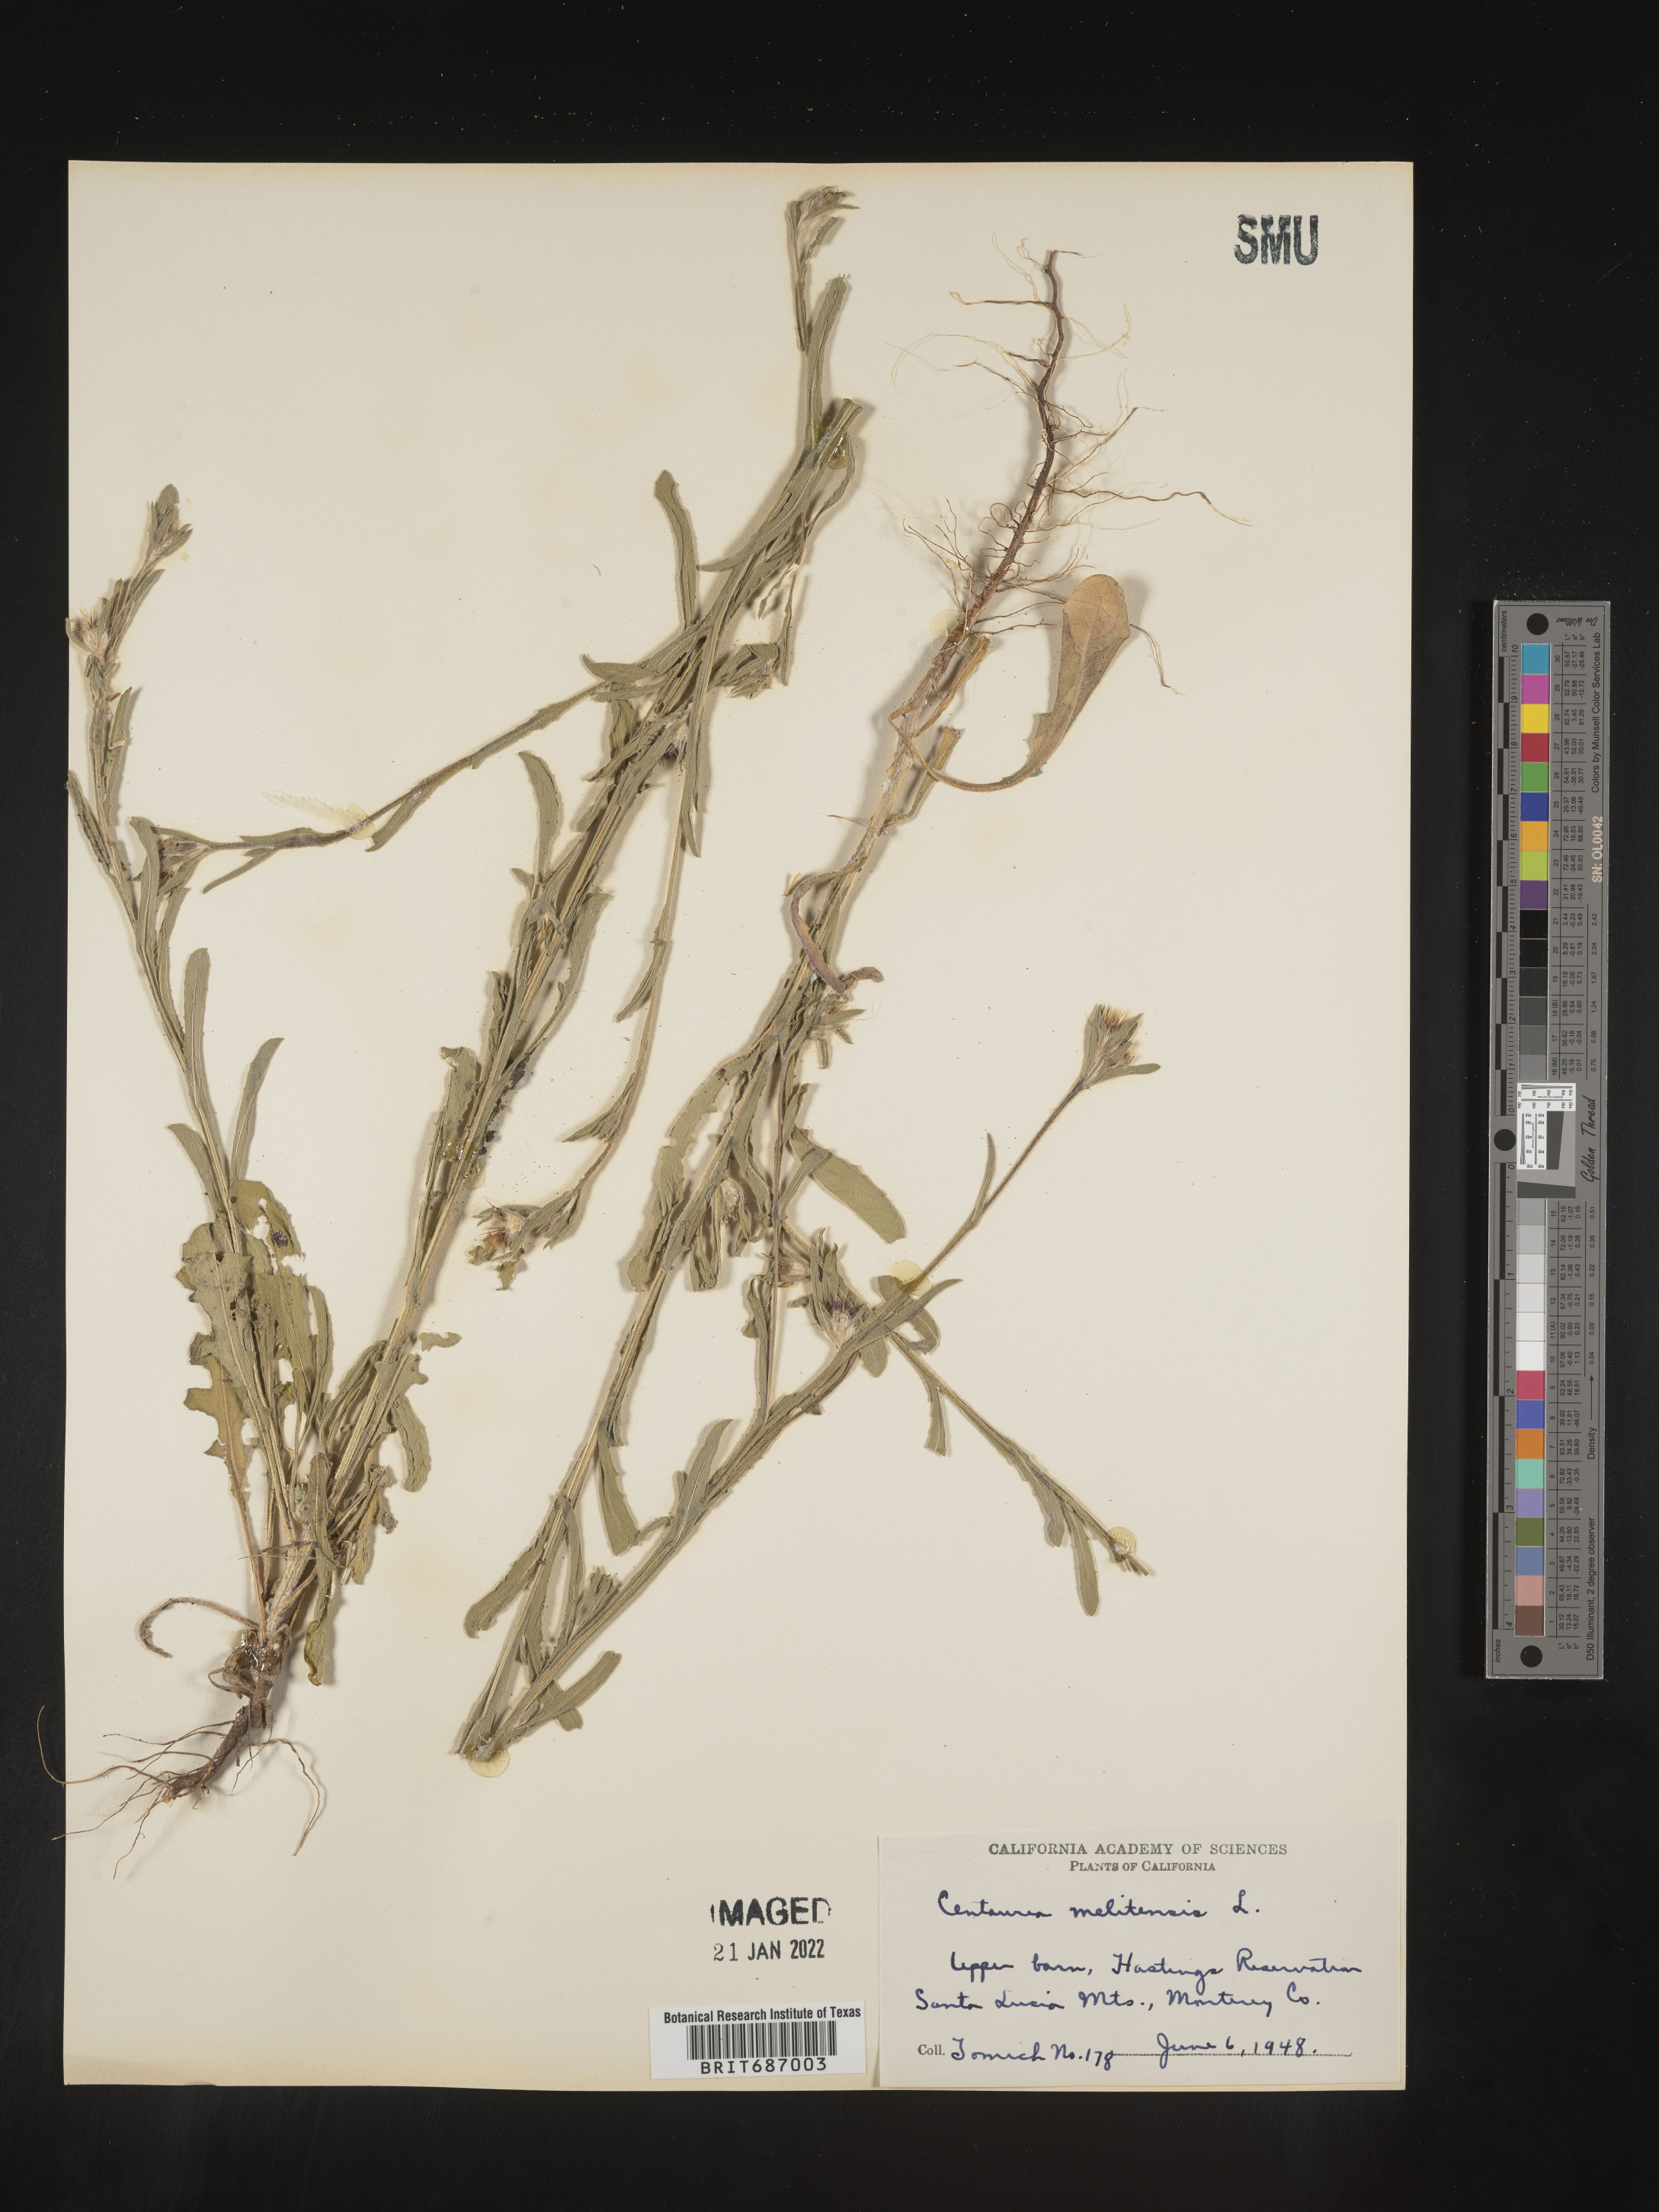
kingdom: Plantae
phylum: Tracheophyta
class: Magnoliopsida
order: Asterales
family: Asteraceae
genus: Centaurea
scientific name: Centaurea melitensis
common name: Maltese star-thistle
